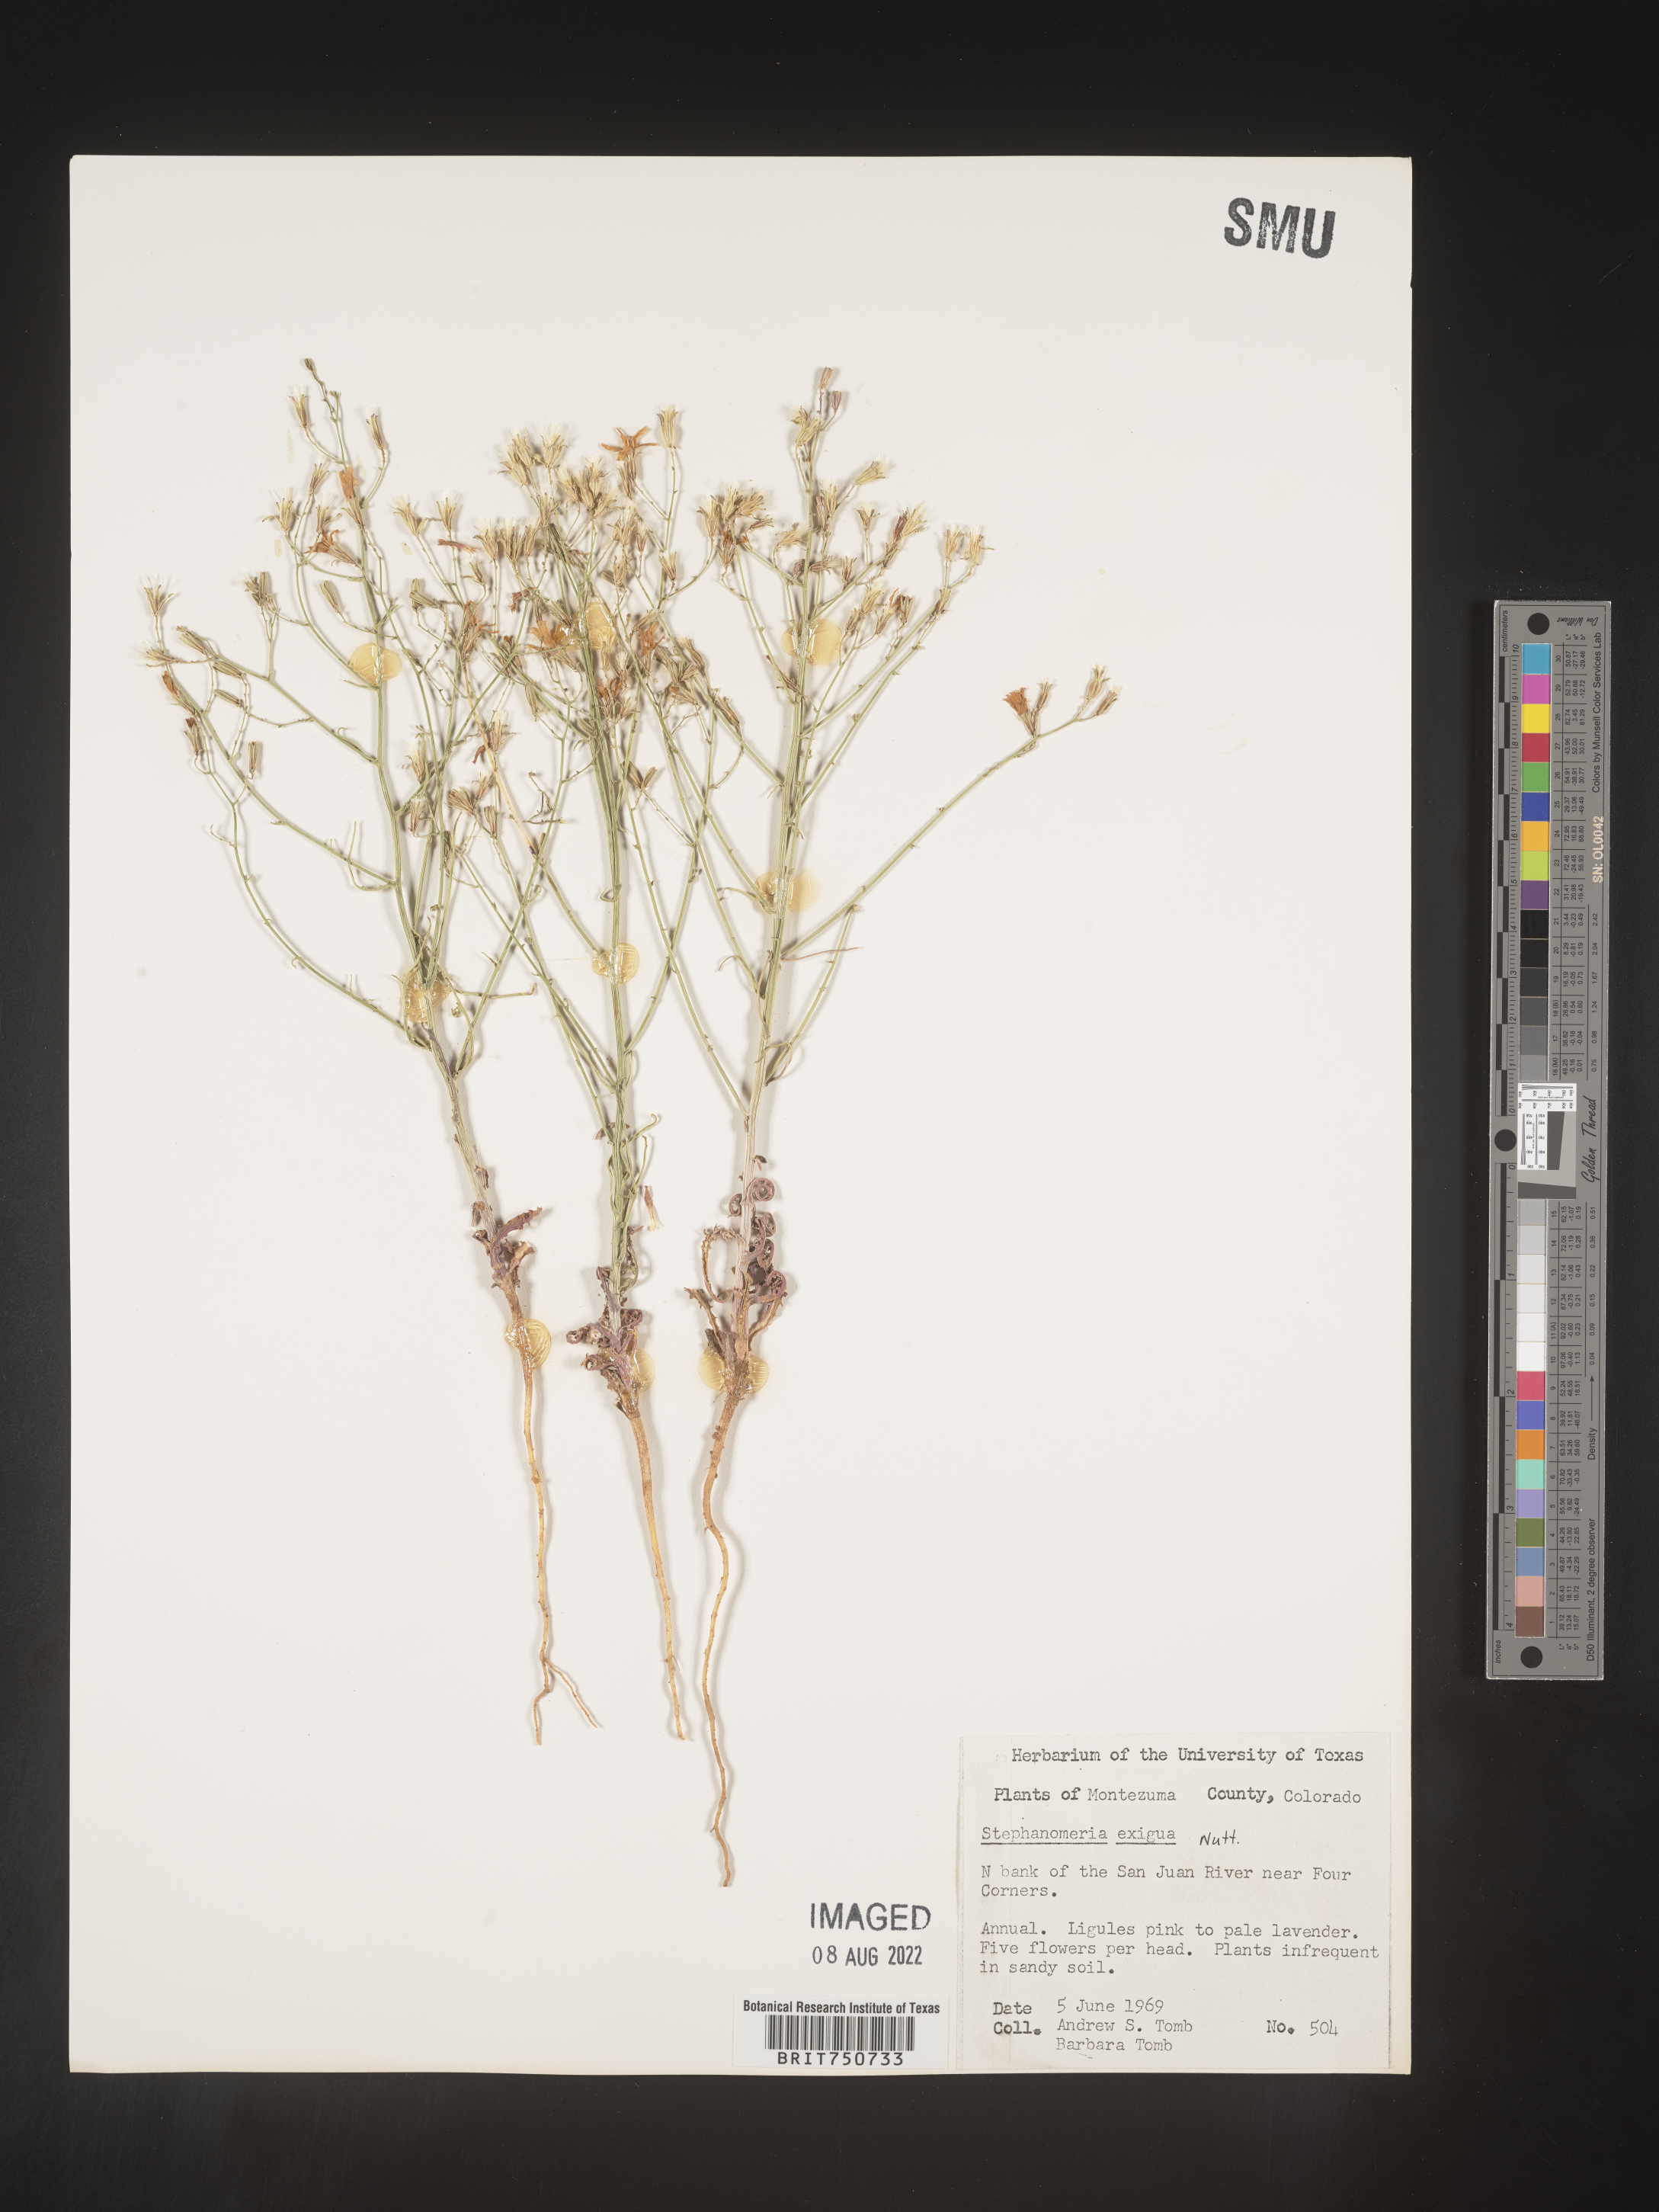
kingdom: Plantae
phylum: Tracheophyta
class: Magnoliopsida
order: Asterales
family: Asteraceae
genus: Stephanomeria
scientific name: Stephanomeria exigua
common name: Small wirelettuce
